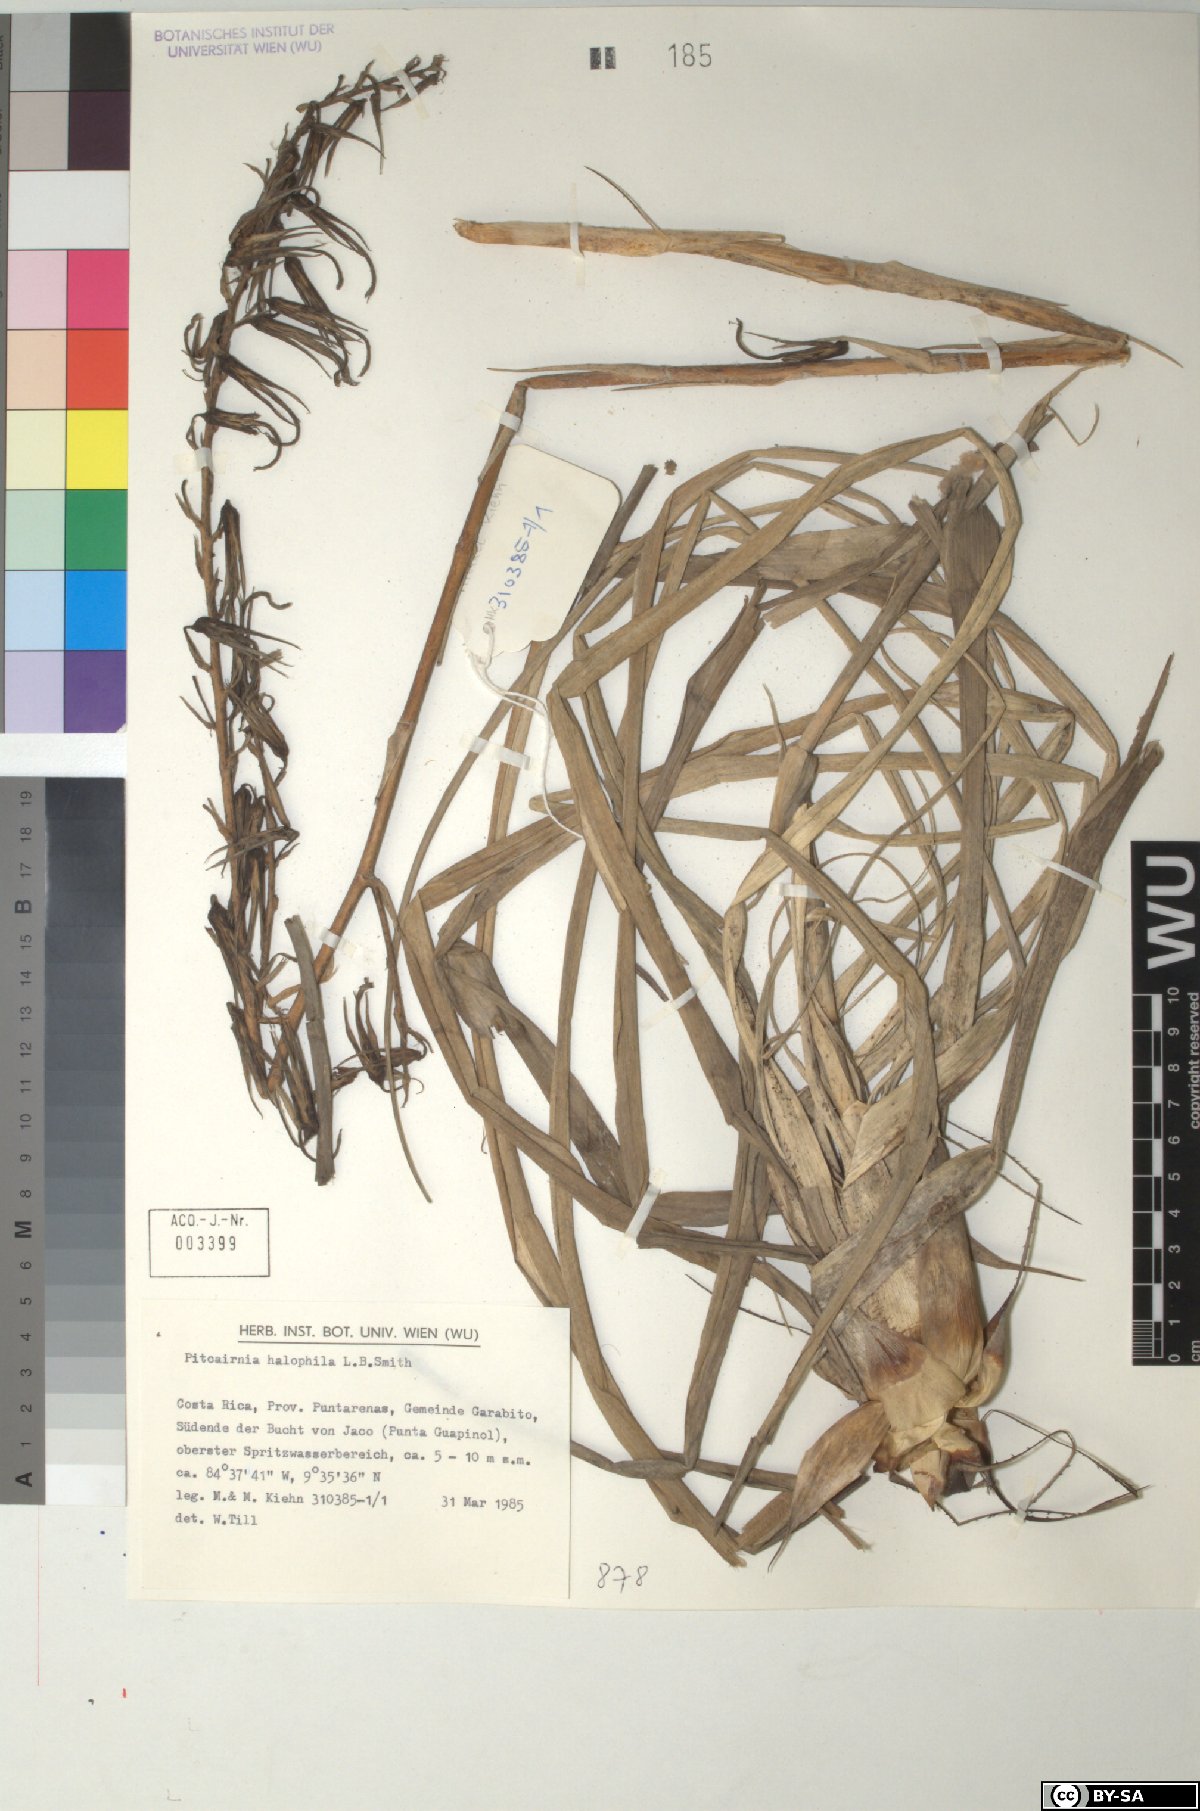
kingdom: Plantae
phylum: Tracheophyta
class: Liliopsida
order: Poales
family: Bromeliaceae
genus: Pitcairnia
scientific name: Pitcairnia halophila
